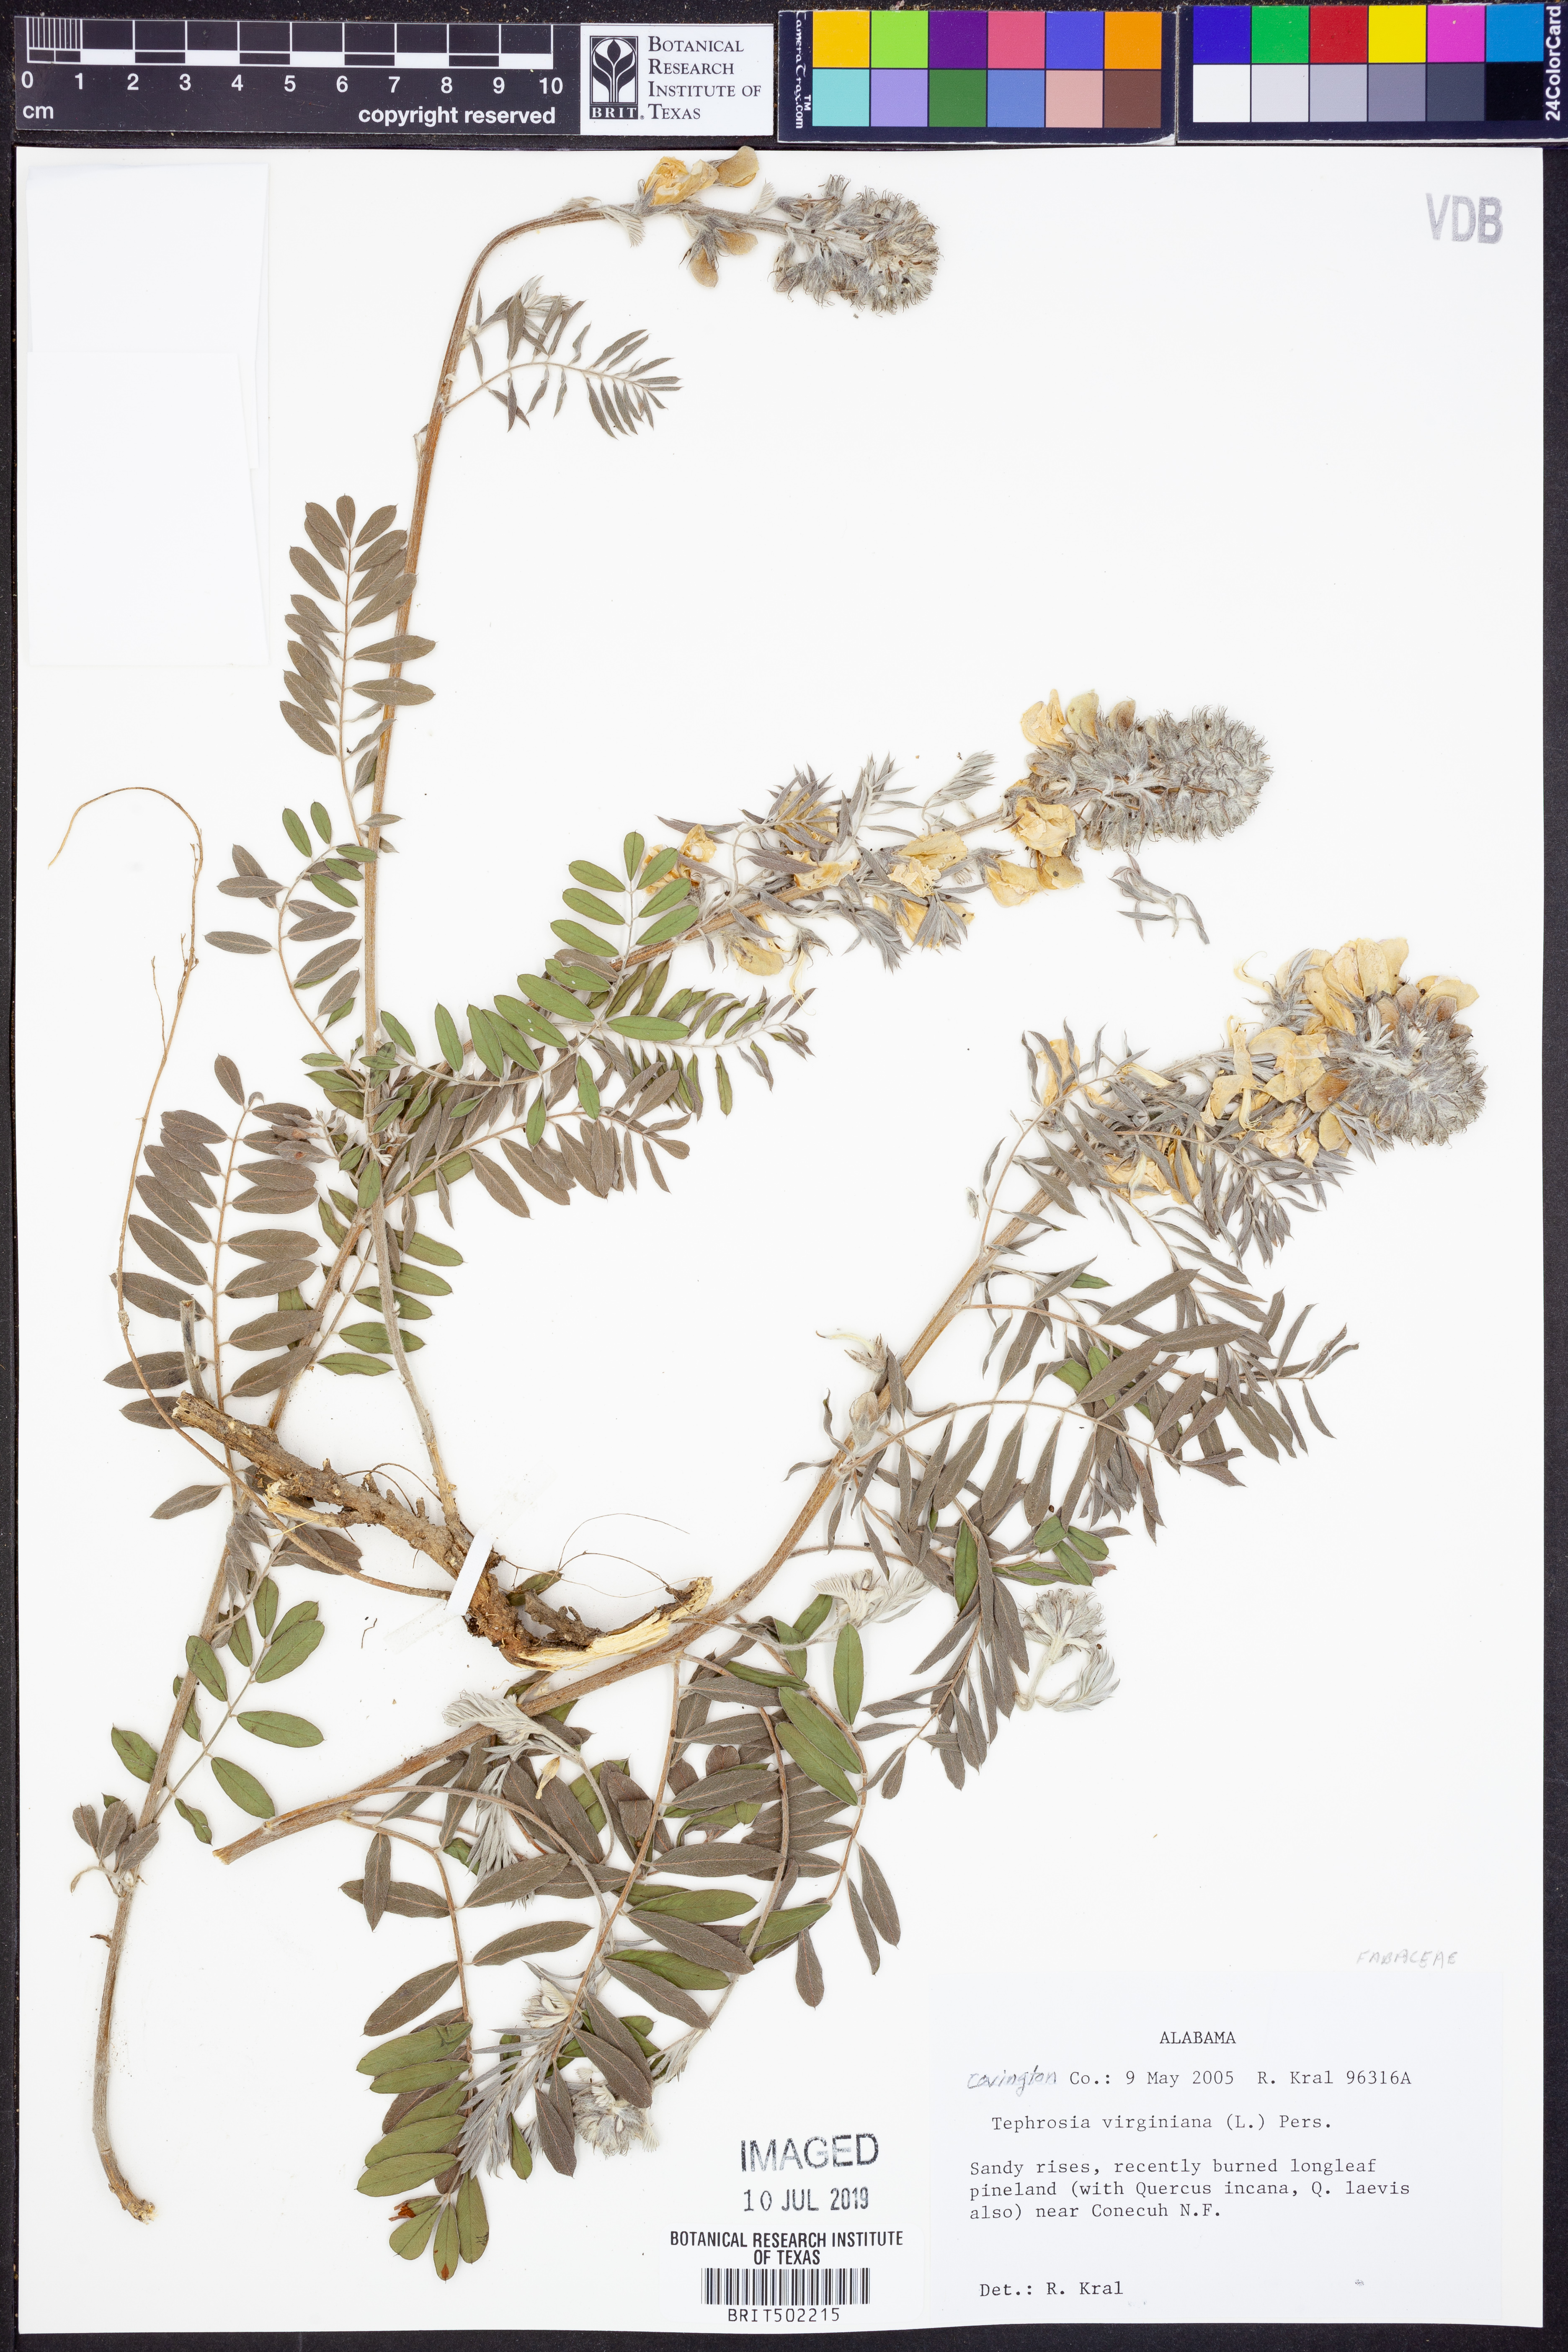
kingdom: Plantae
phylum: Tracheophyta
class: Magnoliopsida
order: Fabales
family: Fabaceae
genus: Tephrosia
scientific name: Tephrosia virginiana
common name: Rabbit-pea
